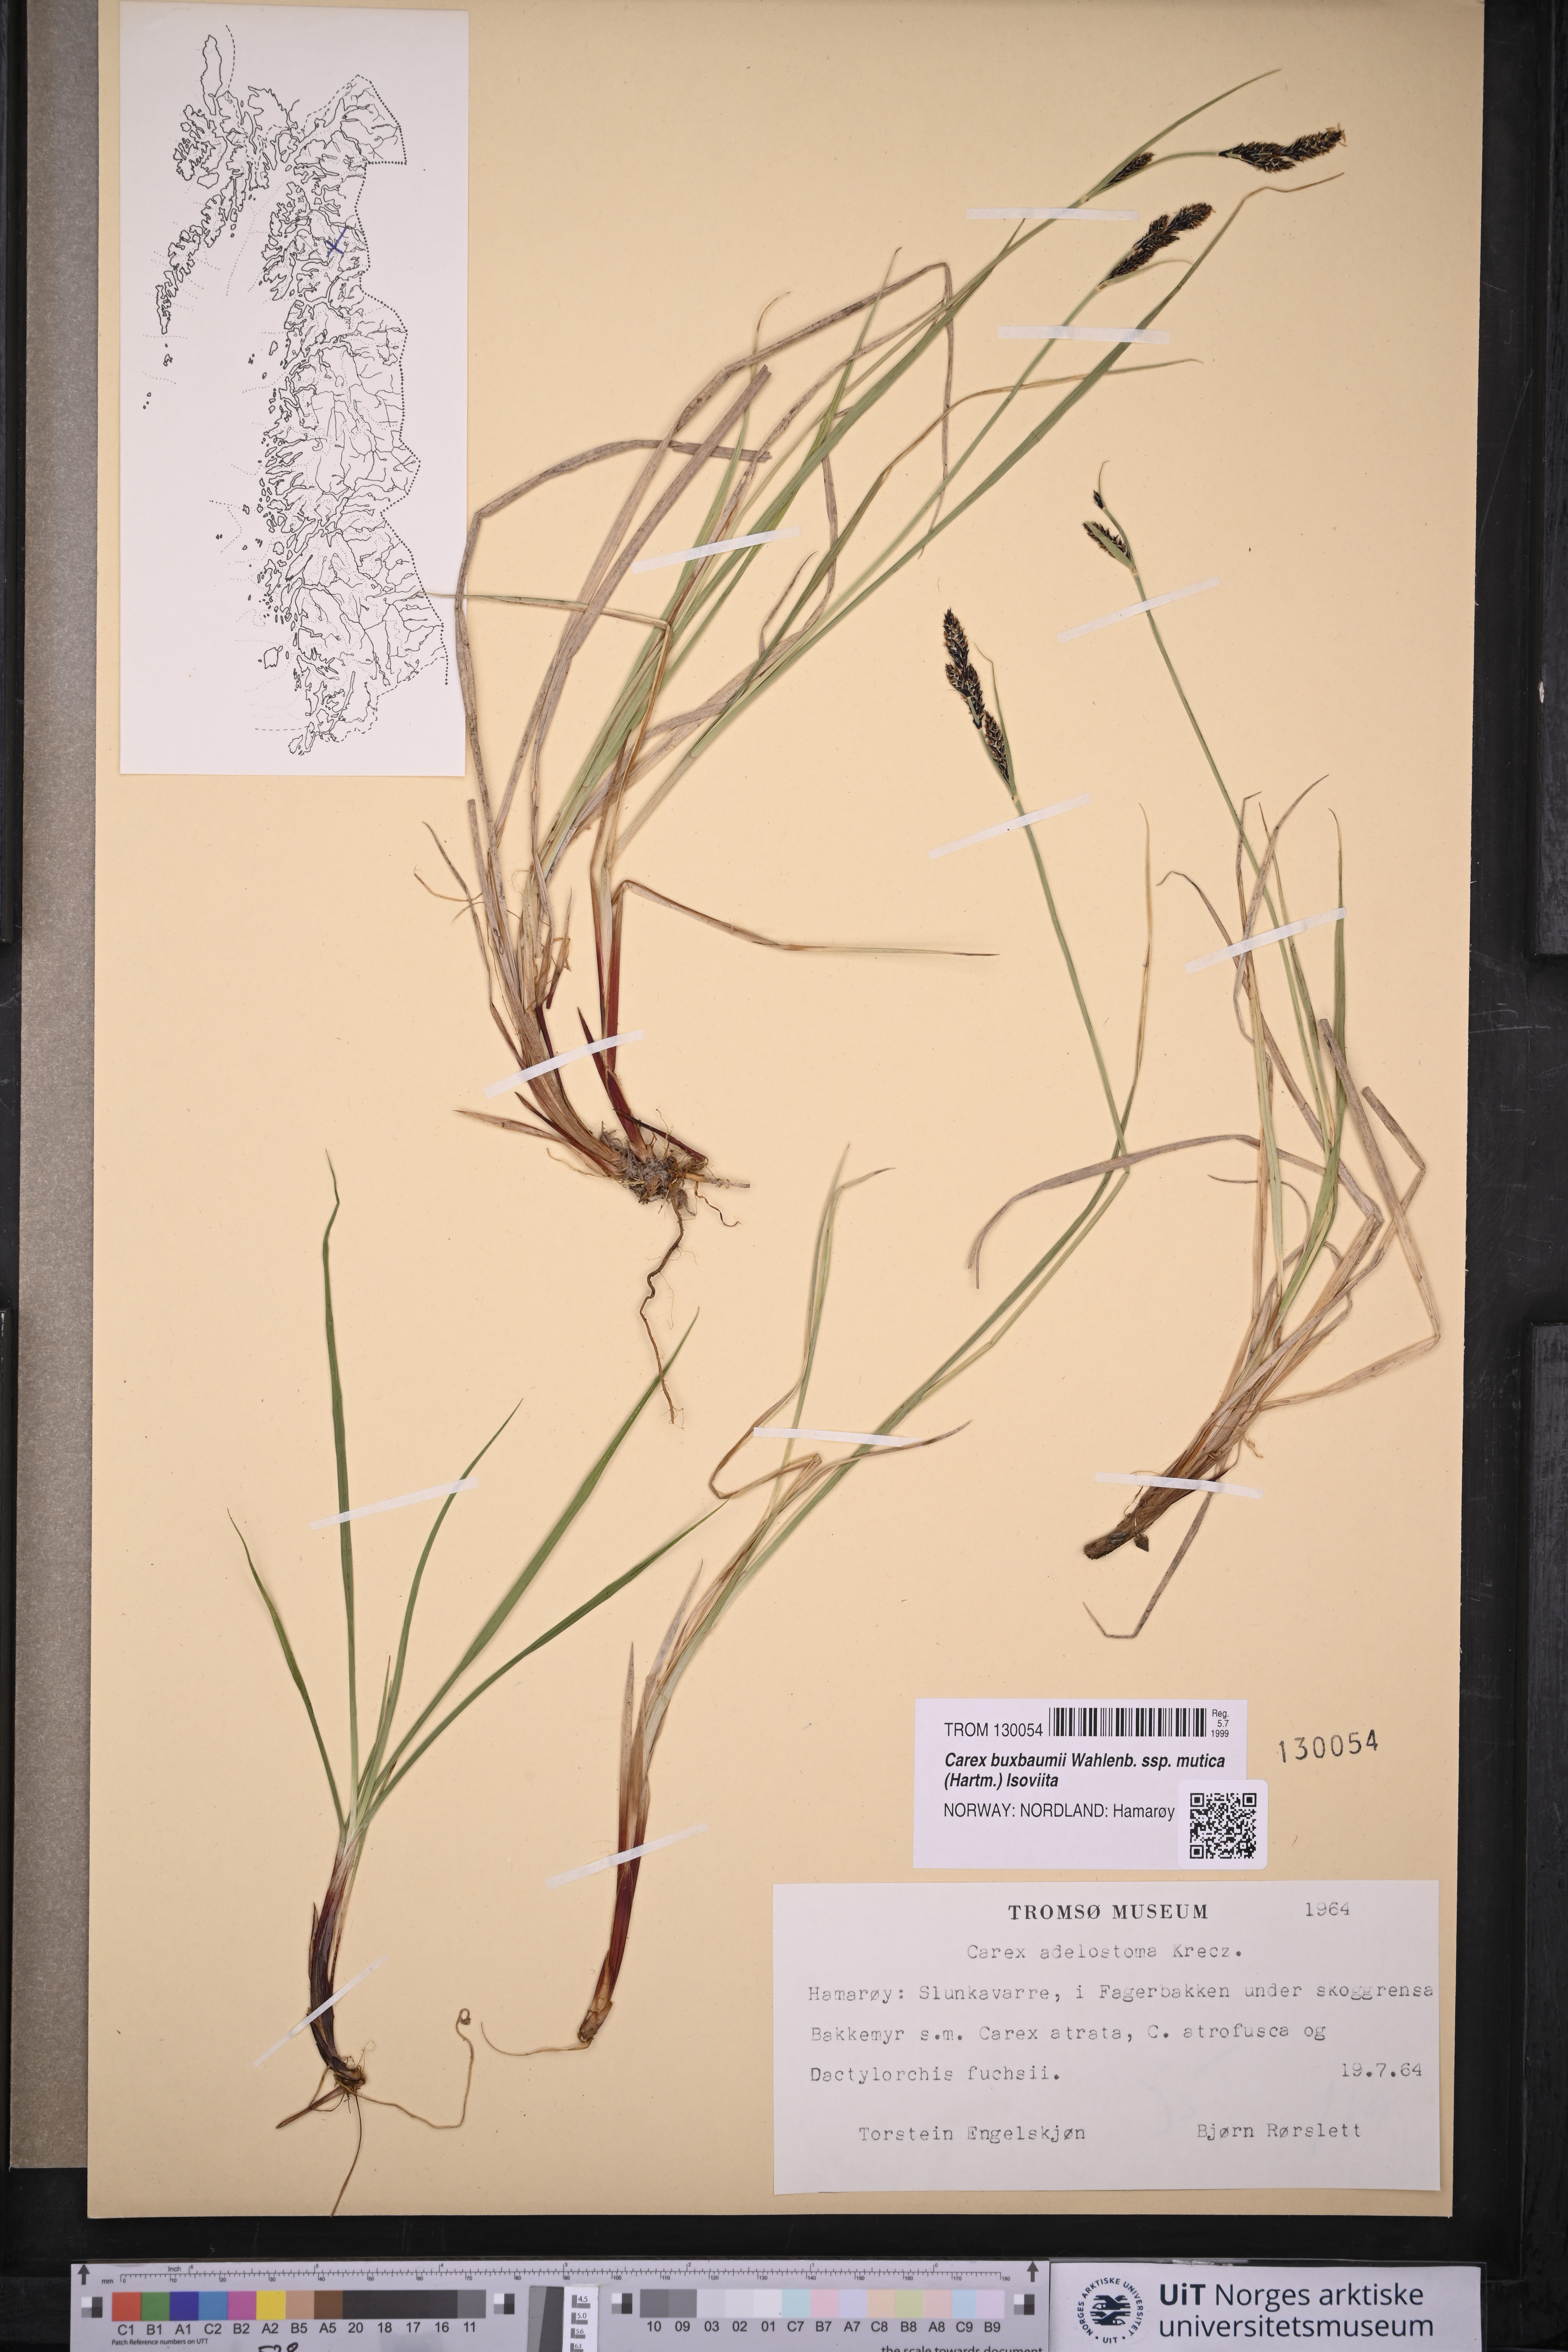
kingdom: Plantae
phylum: Tracheophyta
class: Liliopsida
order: Poales
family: Cyperaceae
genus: Carex
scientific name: Carex adelostoma
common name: Circumpolar sedge
